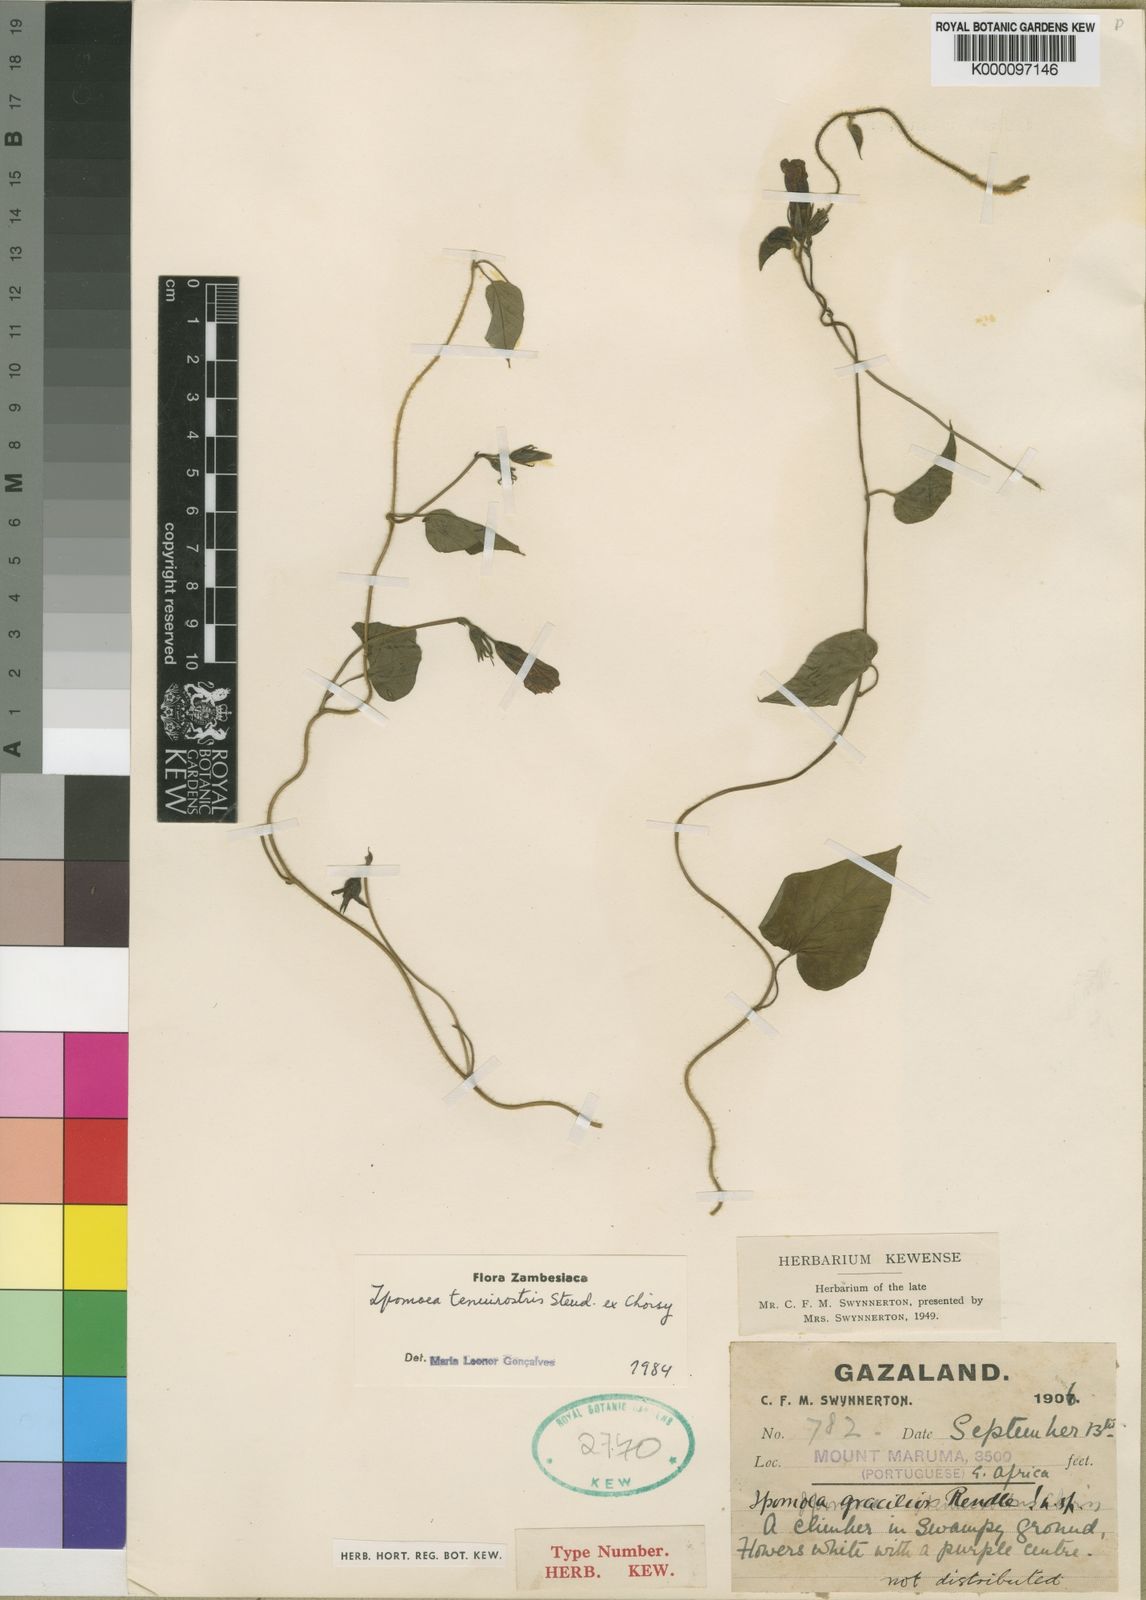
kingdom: Plantae
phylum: Tracheophyta
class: Magnoliopsida
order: Solanales
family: Convolvulaceae
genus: Ipomoea
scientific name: Ipomoea tenuirostris
